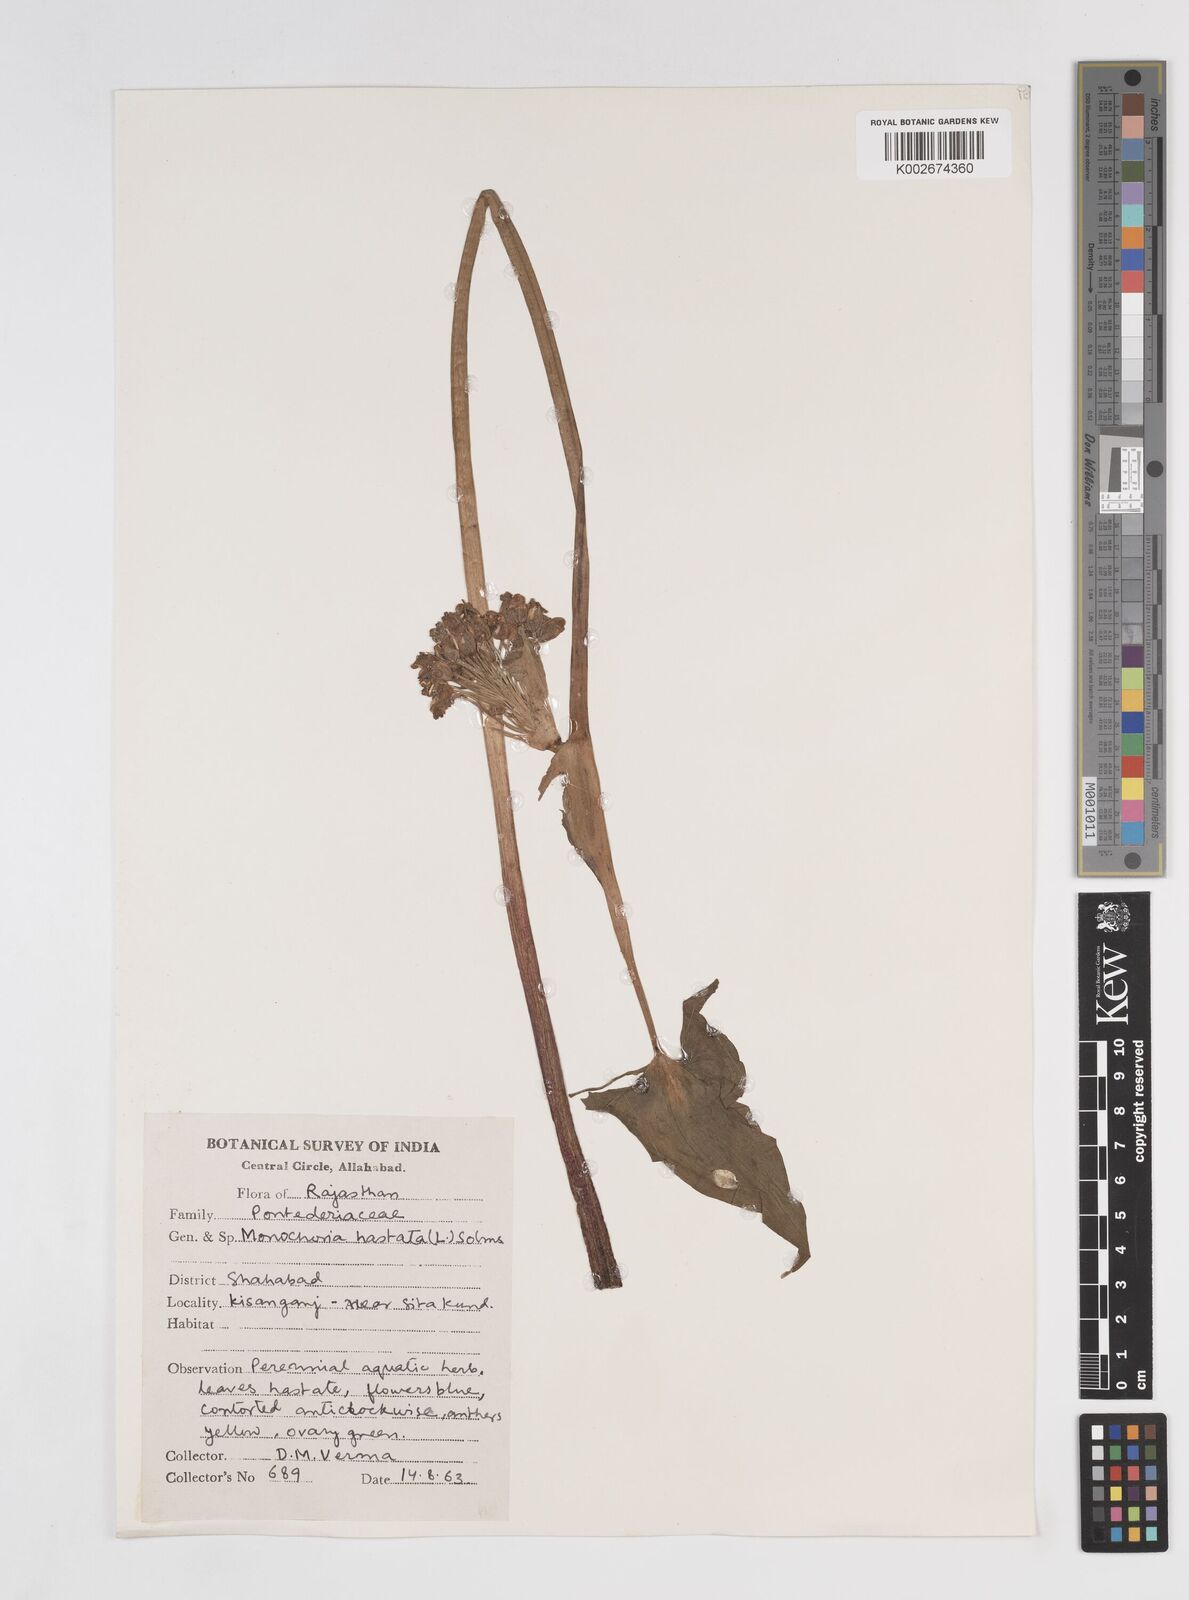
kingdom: Plantae
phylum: Tracheophyta
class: Liliopsida
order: Commelinales
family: Pontederiaceae
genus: Pontederia
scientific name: Pontederia hastata
